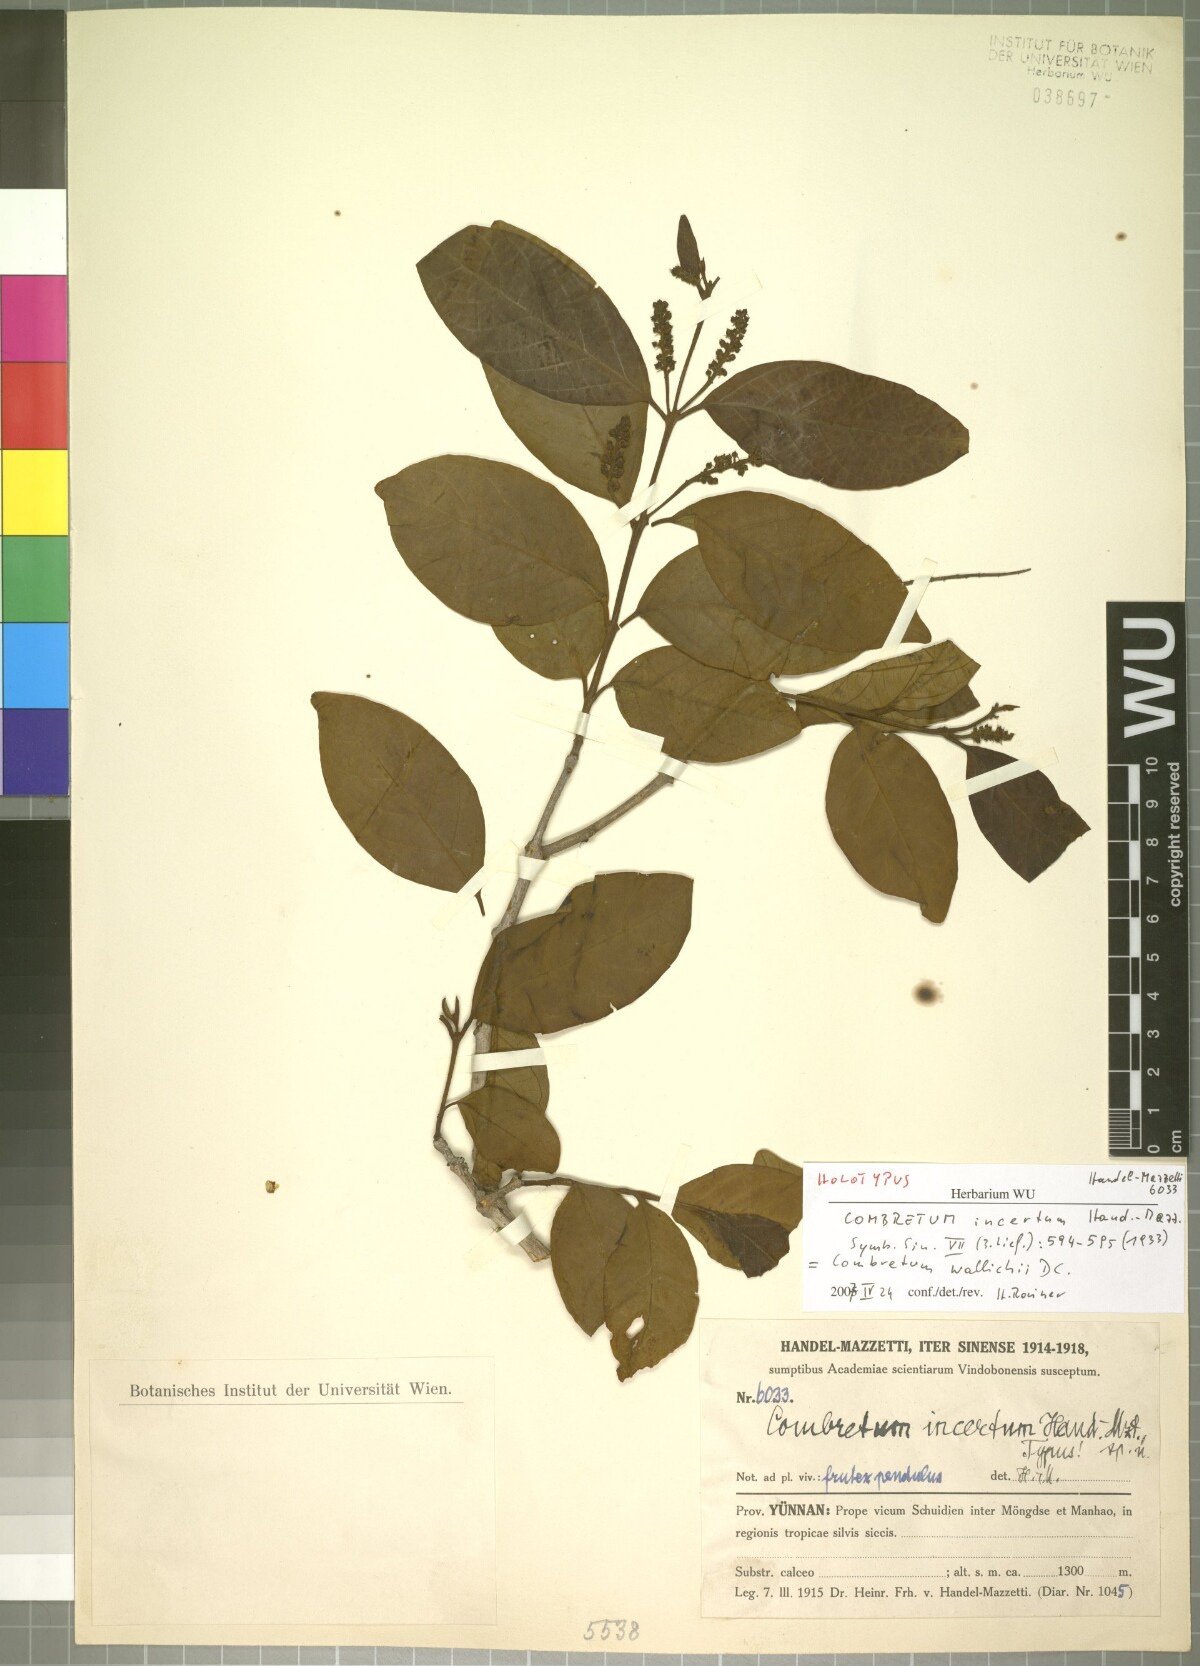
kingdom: Plantae
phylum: Tracheophyta
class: Magnoliopsida
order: Myrtales
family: Combretaceae
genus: Combretum
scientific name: Combretum wallichii
